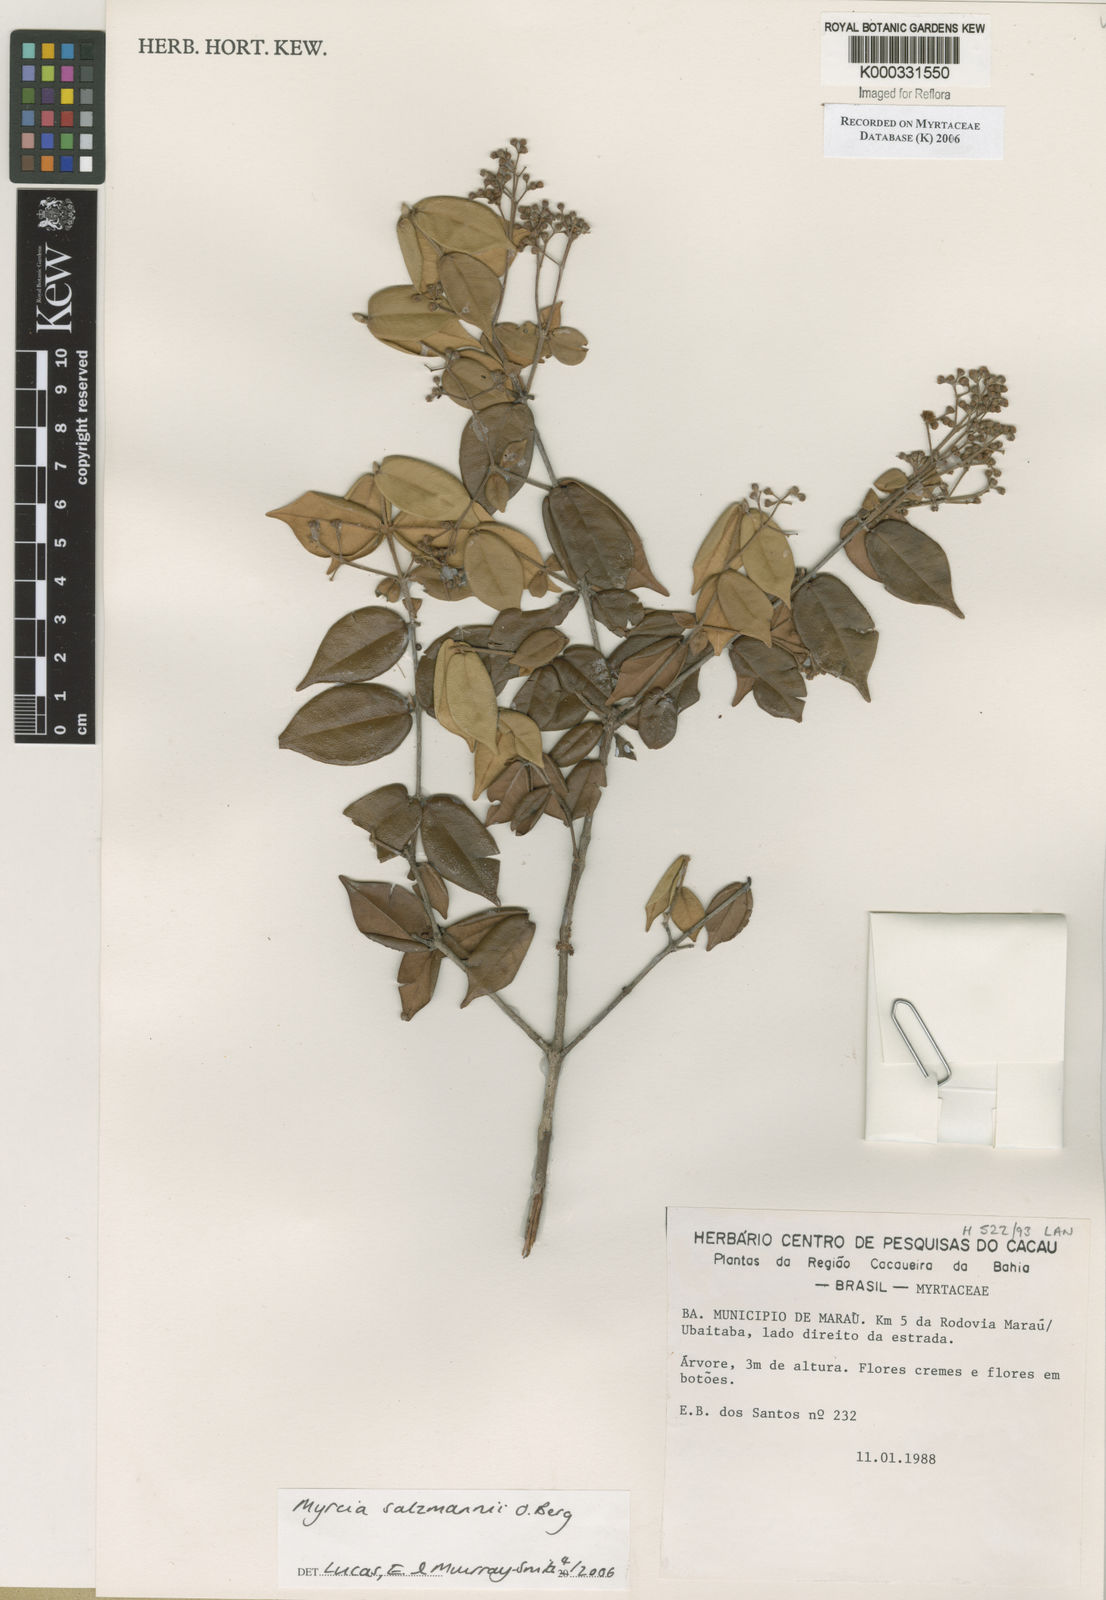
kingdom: Plantae
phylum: Tracheophyta
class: Magnoliopsida
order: Myrtales
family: Myrtaceae
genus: Myrcia
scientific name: Myrcia salzmannii
